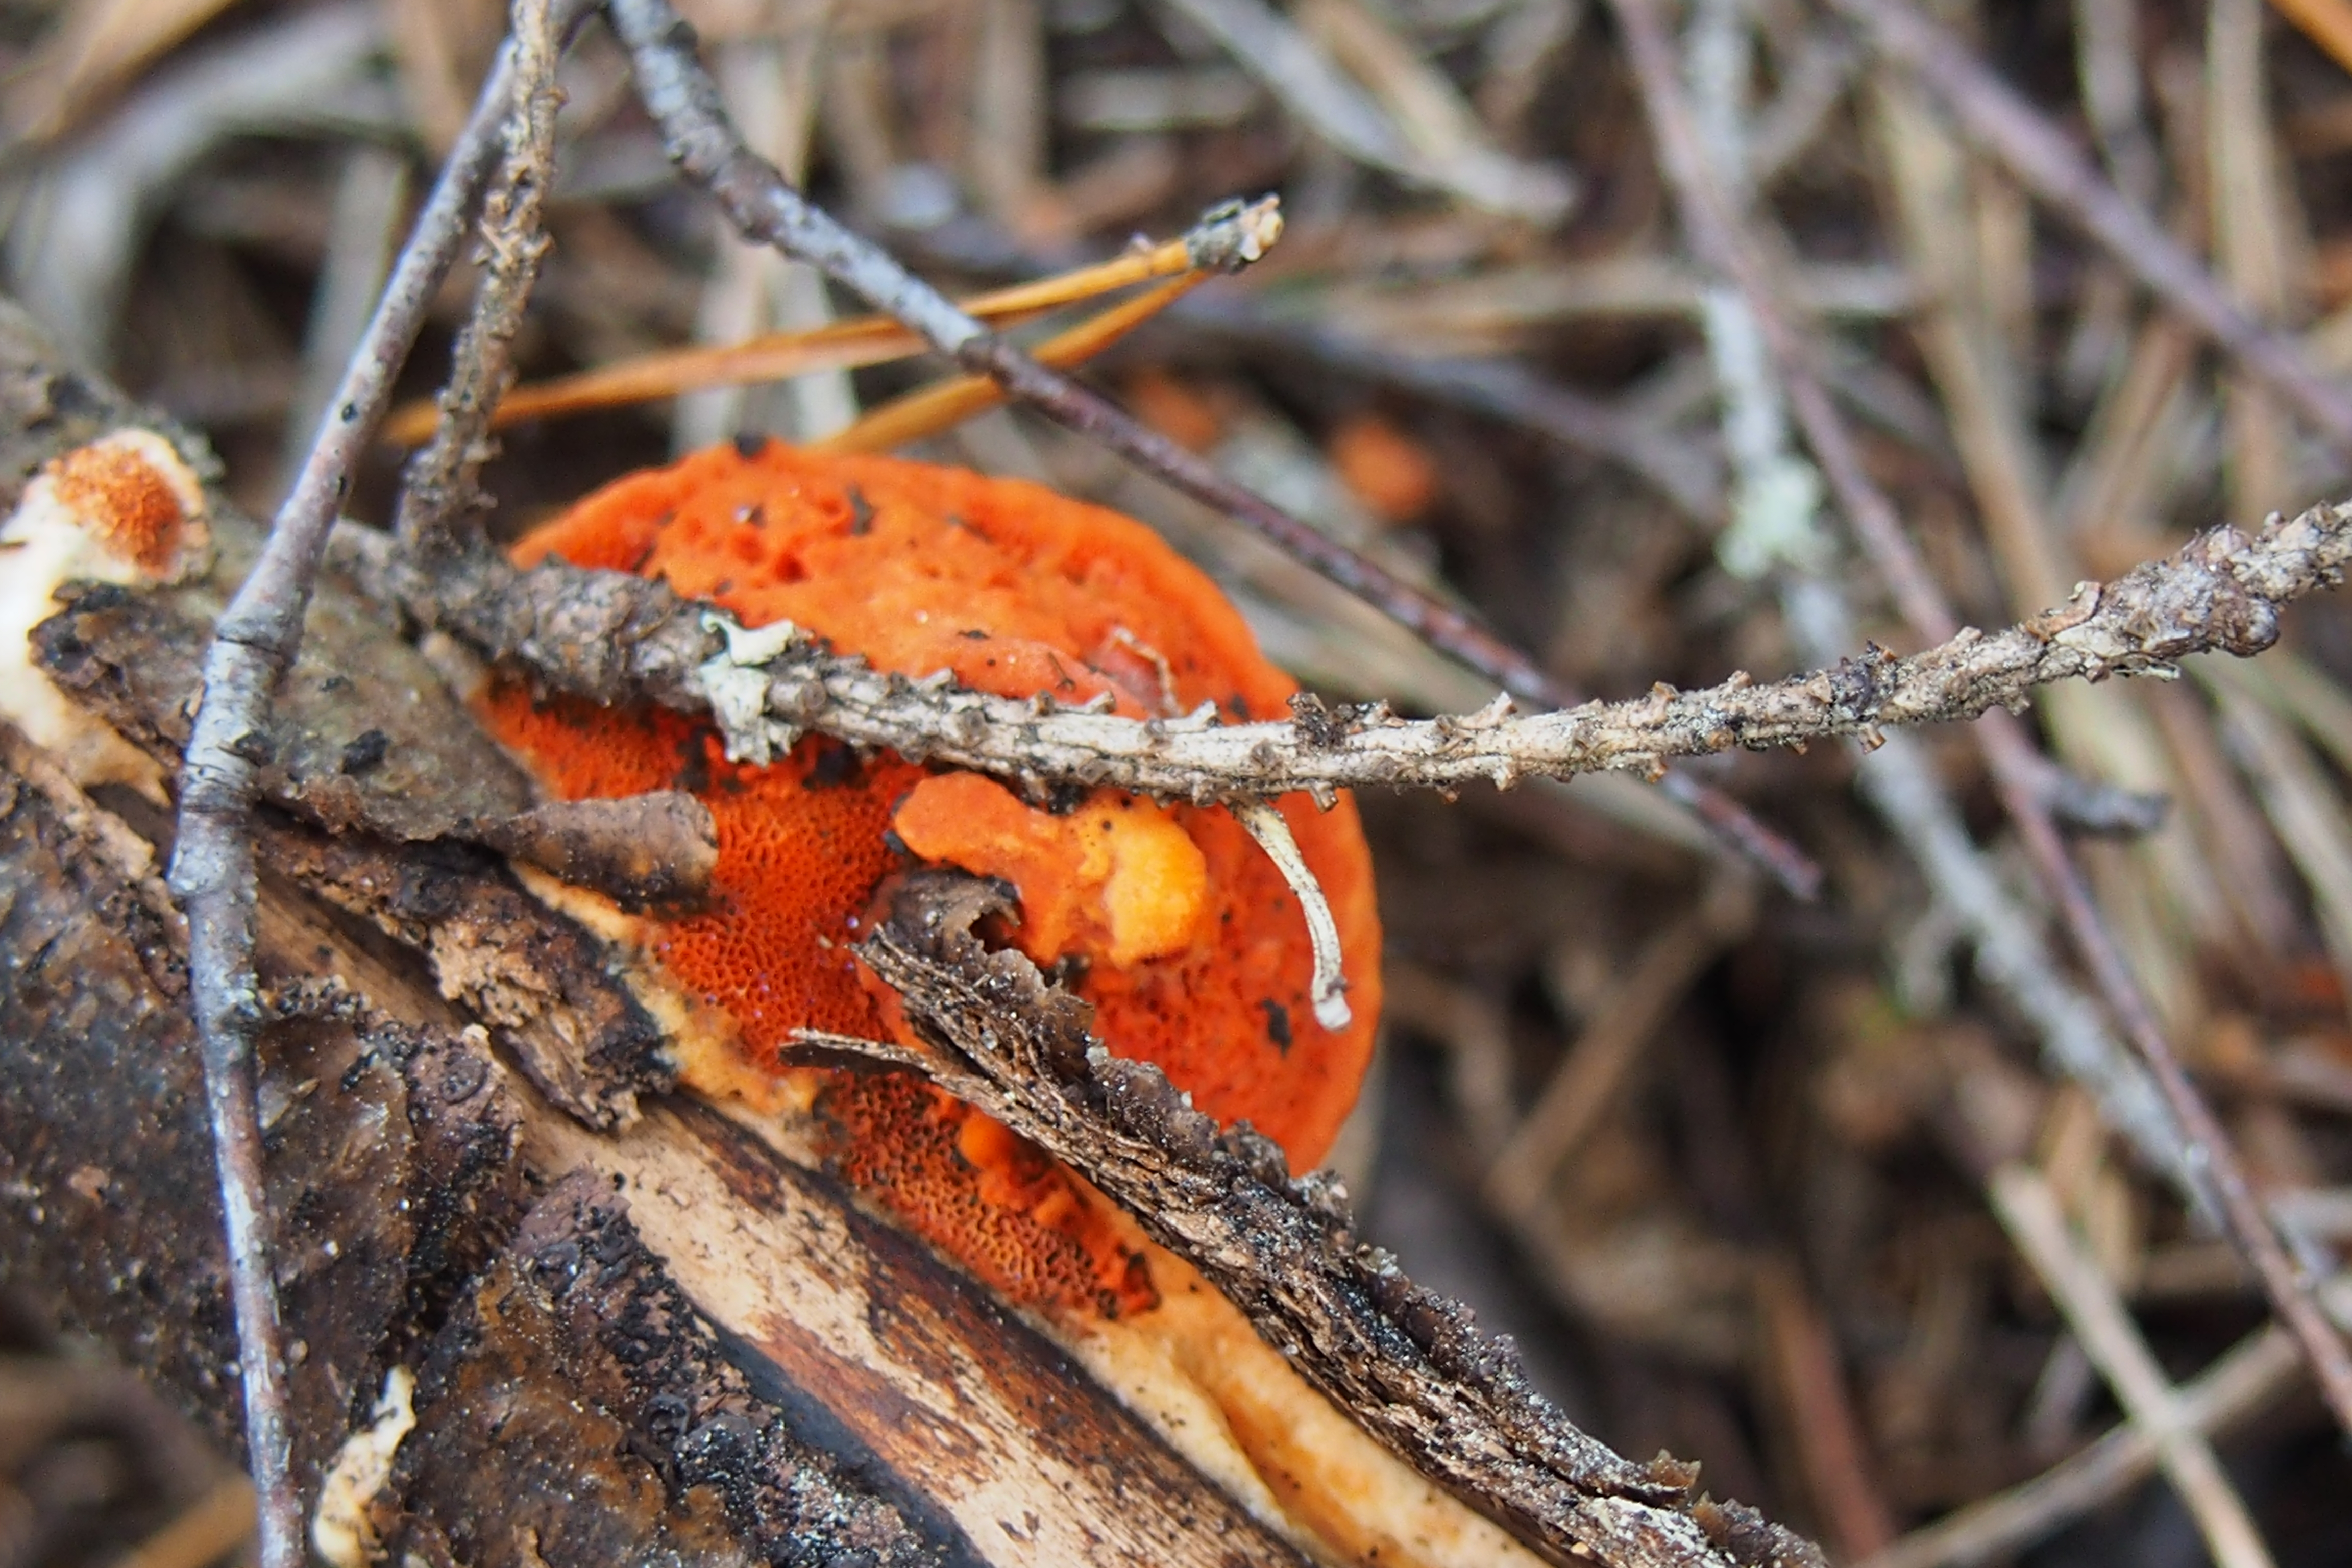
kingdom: Fungi
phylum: Basidiomycota
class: Agaricomycetes
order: Polyporales
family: Polyporaceae
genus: Trametes
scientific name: Trametes cinnabarina
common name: Northern cinnabar polypore
